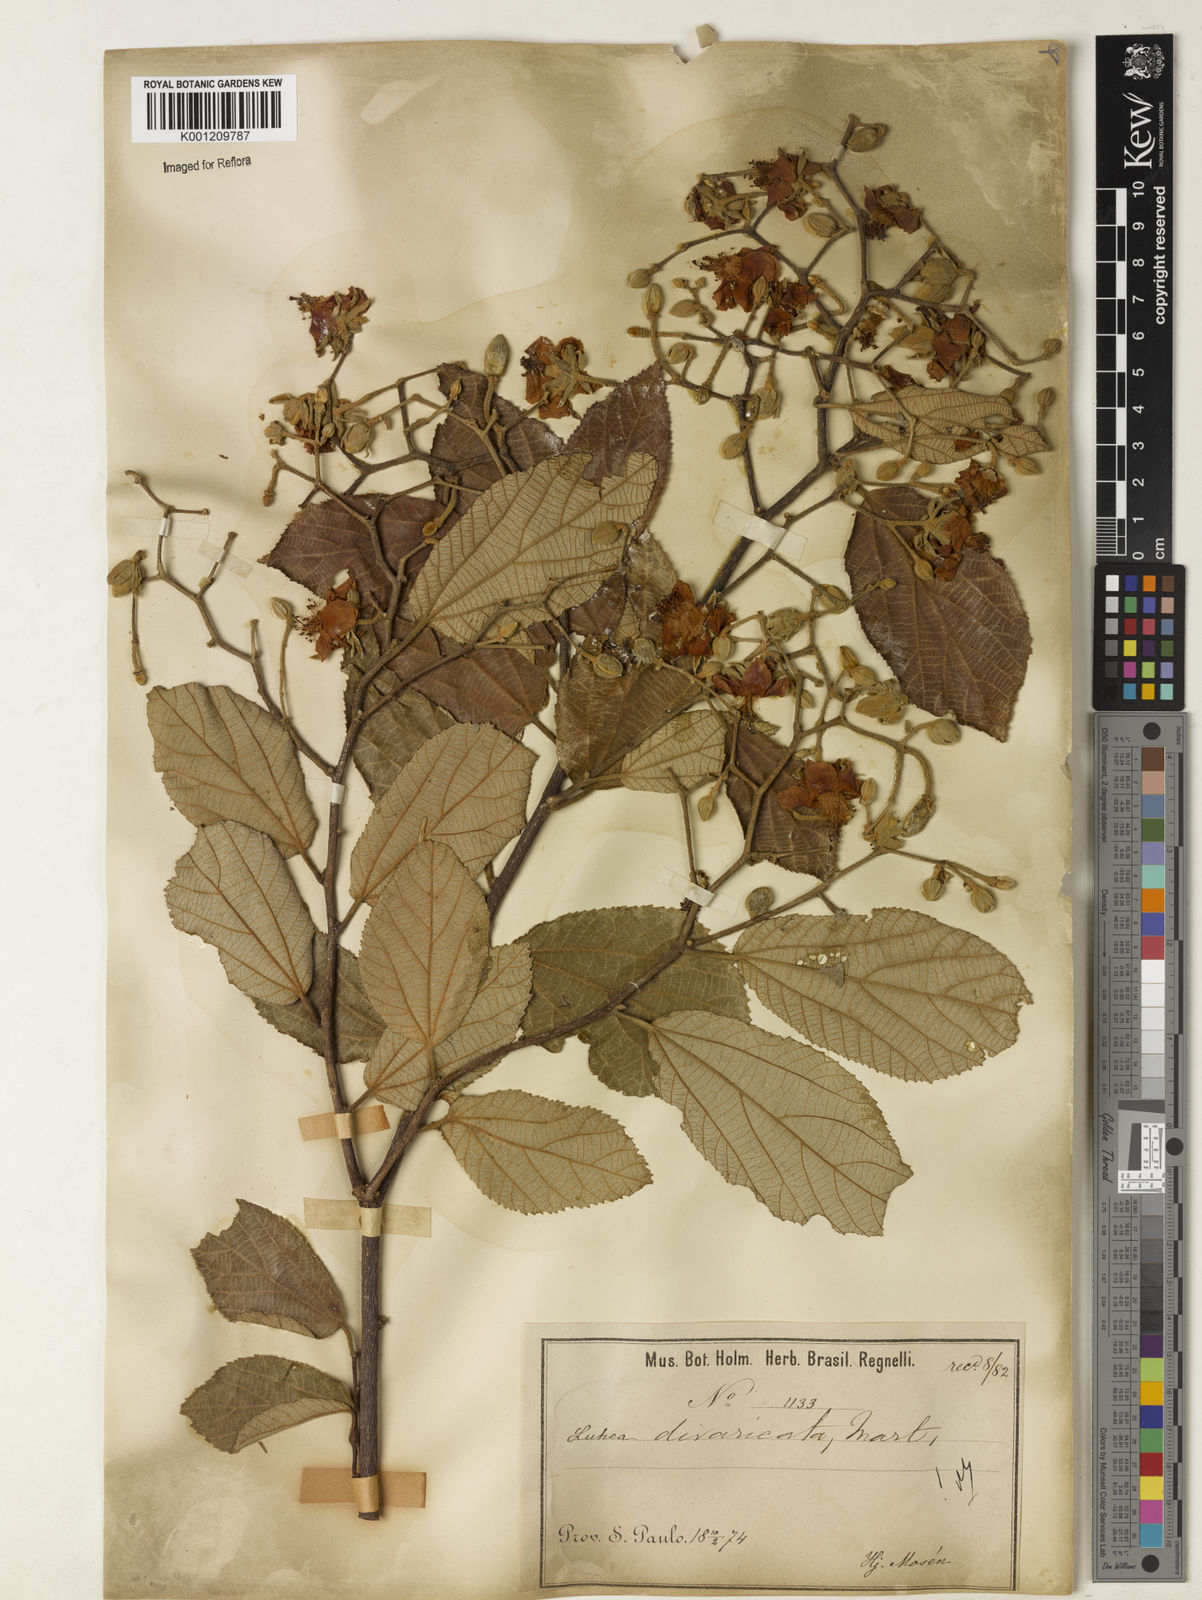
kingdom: Plantae
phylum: Tracheophyta
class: Magnoliopsida
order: Malvales
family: Malvaceae
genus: Luehea
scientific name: Luehea divaricata
